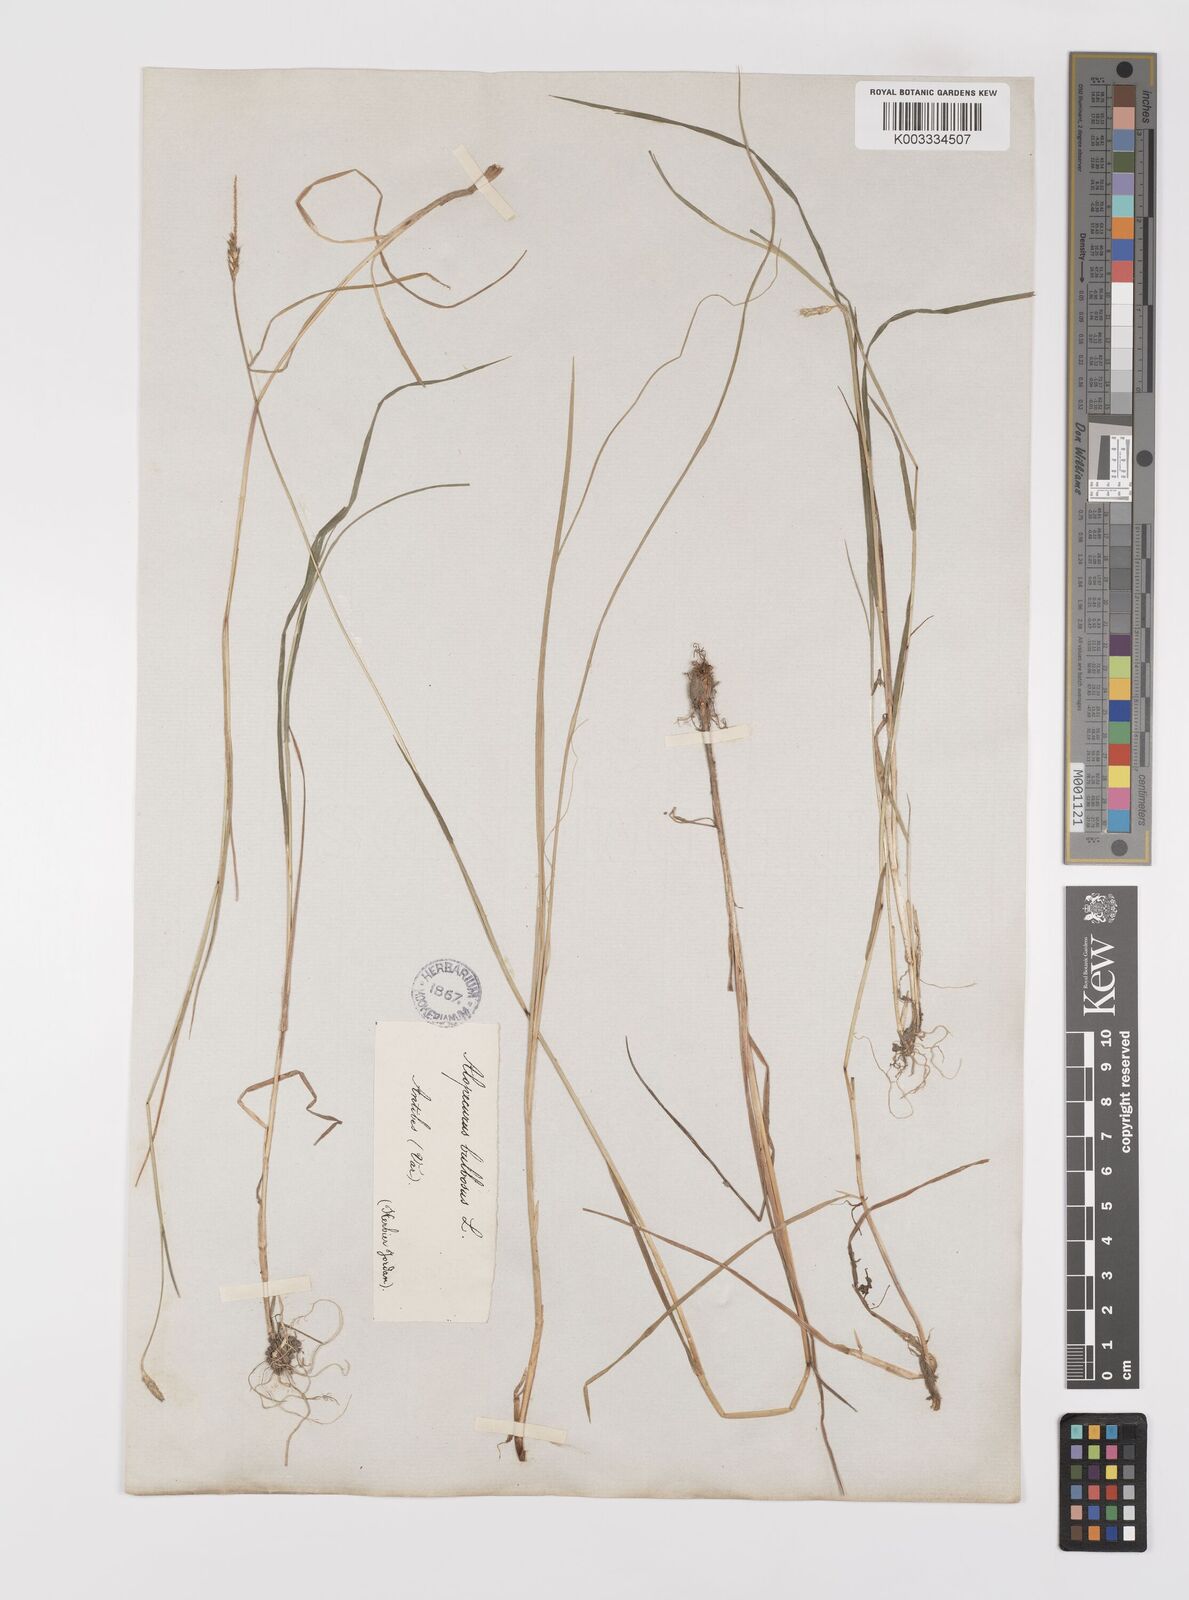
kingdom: Plantae
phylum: Tracheophyta
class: Liliopsida
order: Poales
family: Poaceae
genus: Alopecurus
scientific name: Alopecurus bulbosus
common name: Bulbous foxtail
